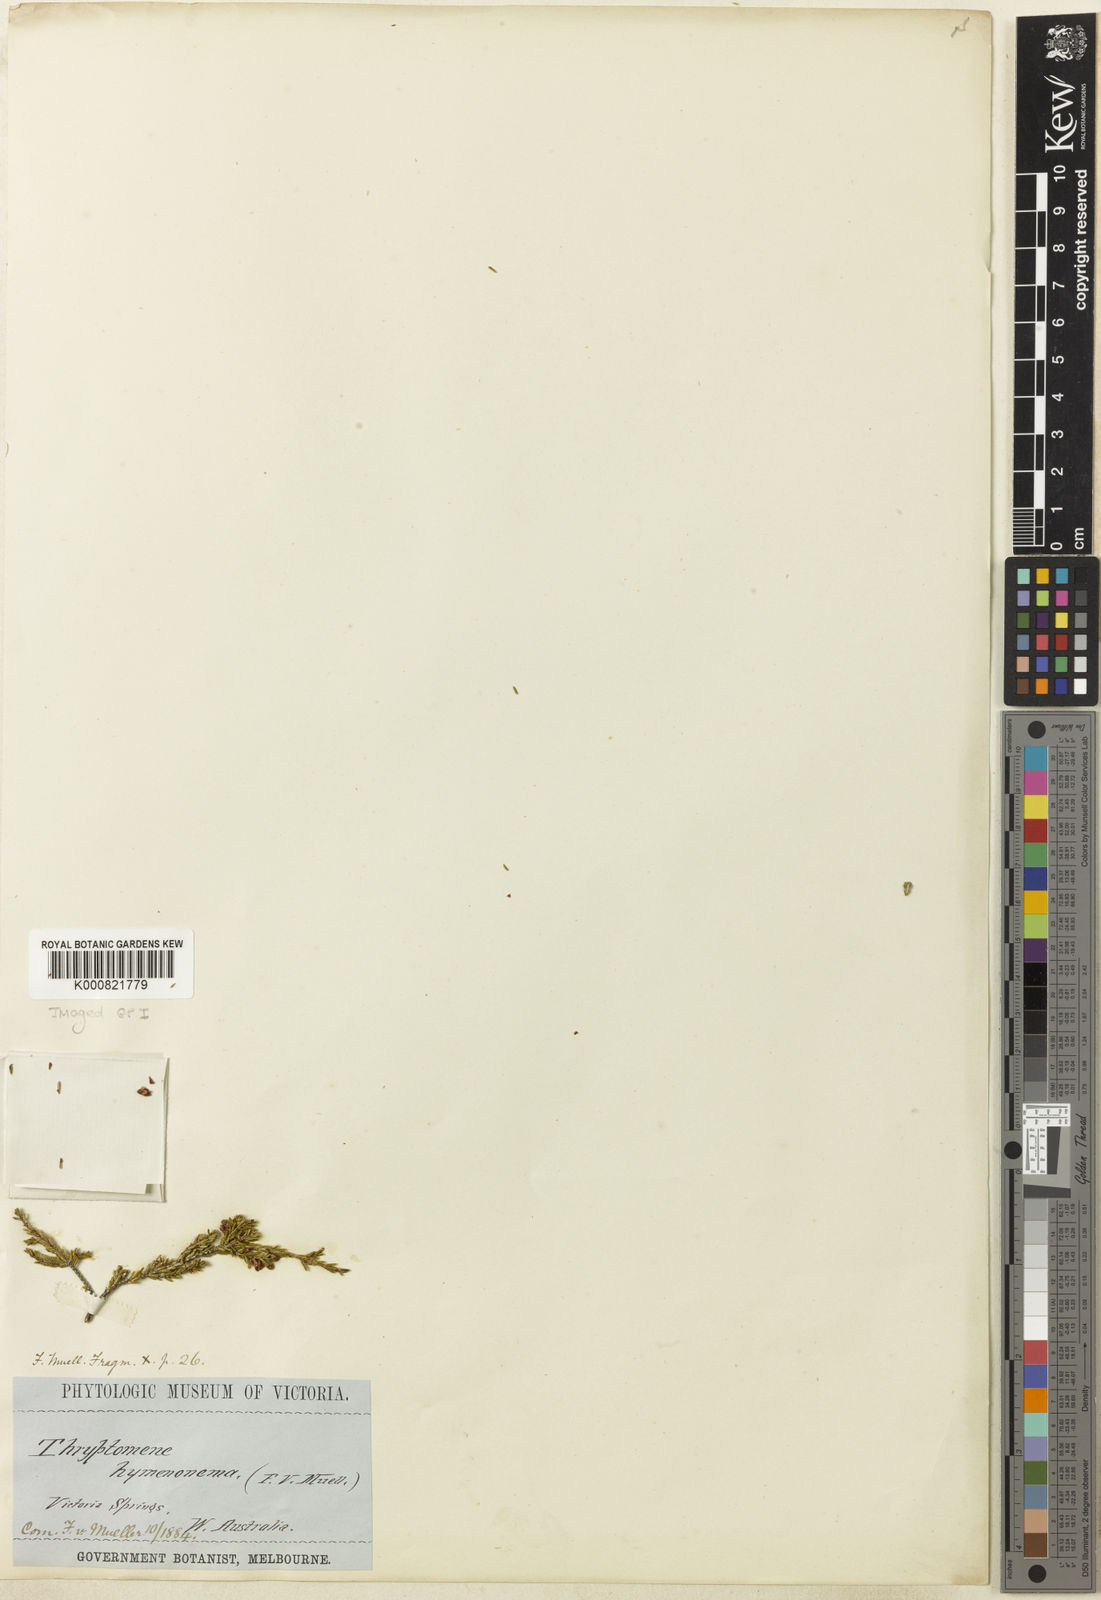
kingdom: Plantae
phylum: Tracheophyta
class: Magnoliopsida
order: Myrtales
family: Myrtaceae
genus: Micromyrtus
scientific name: Micromyrtus hymenonerna
